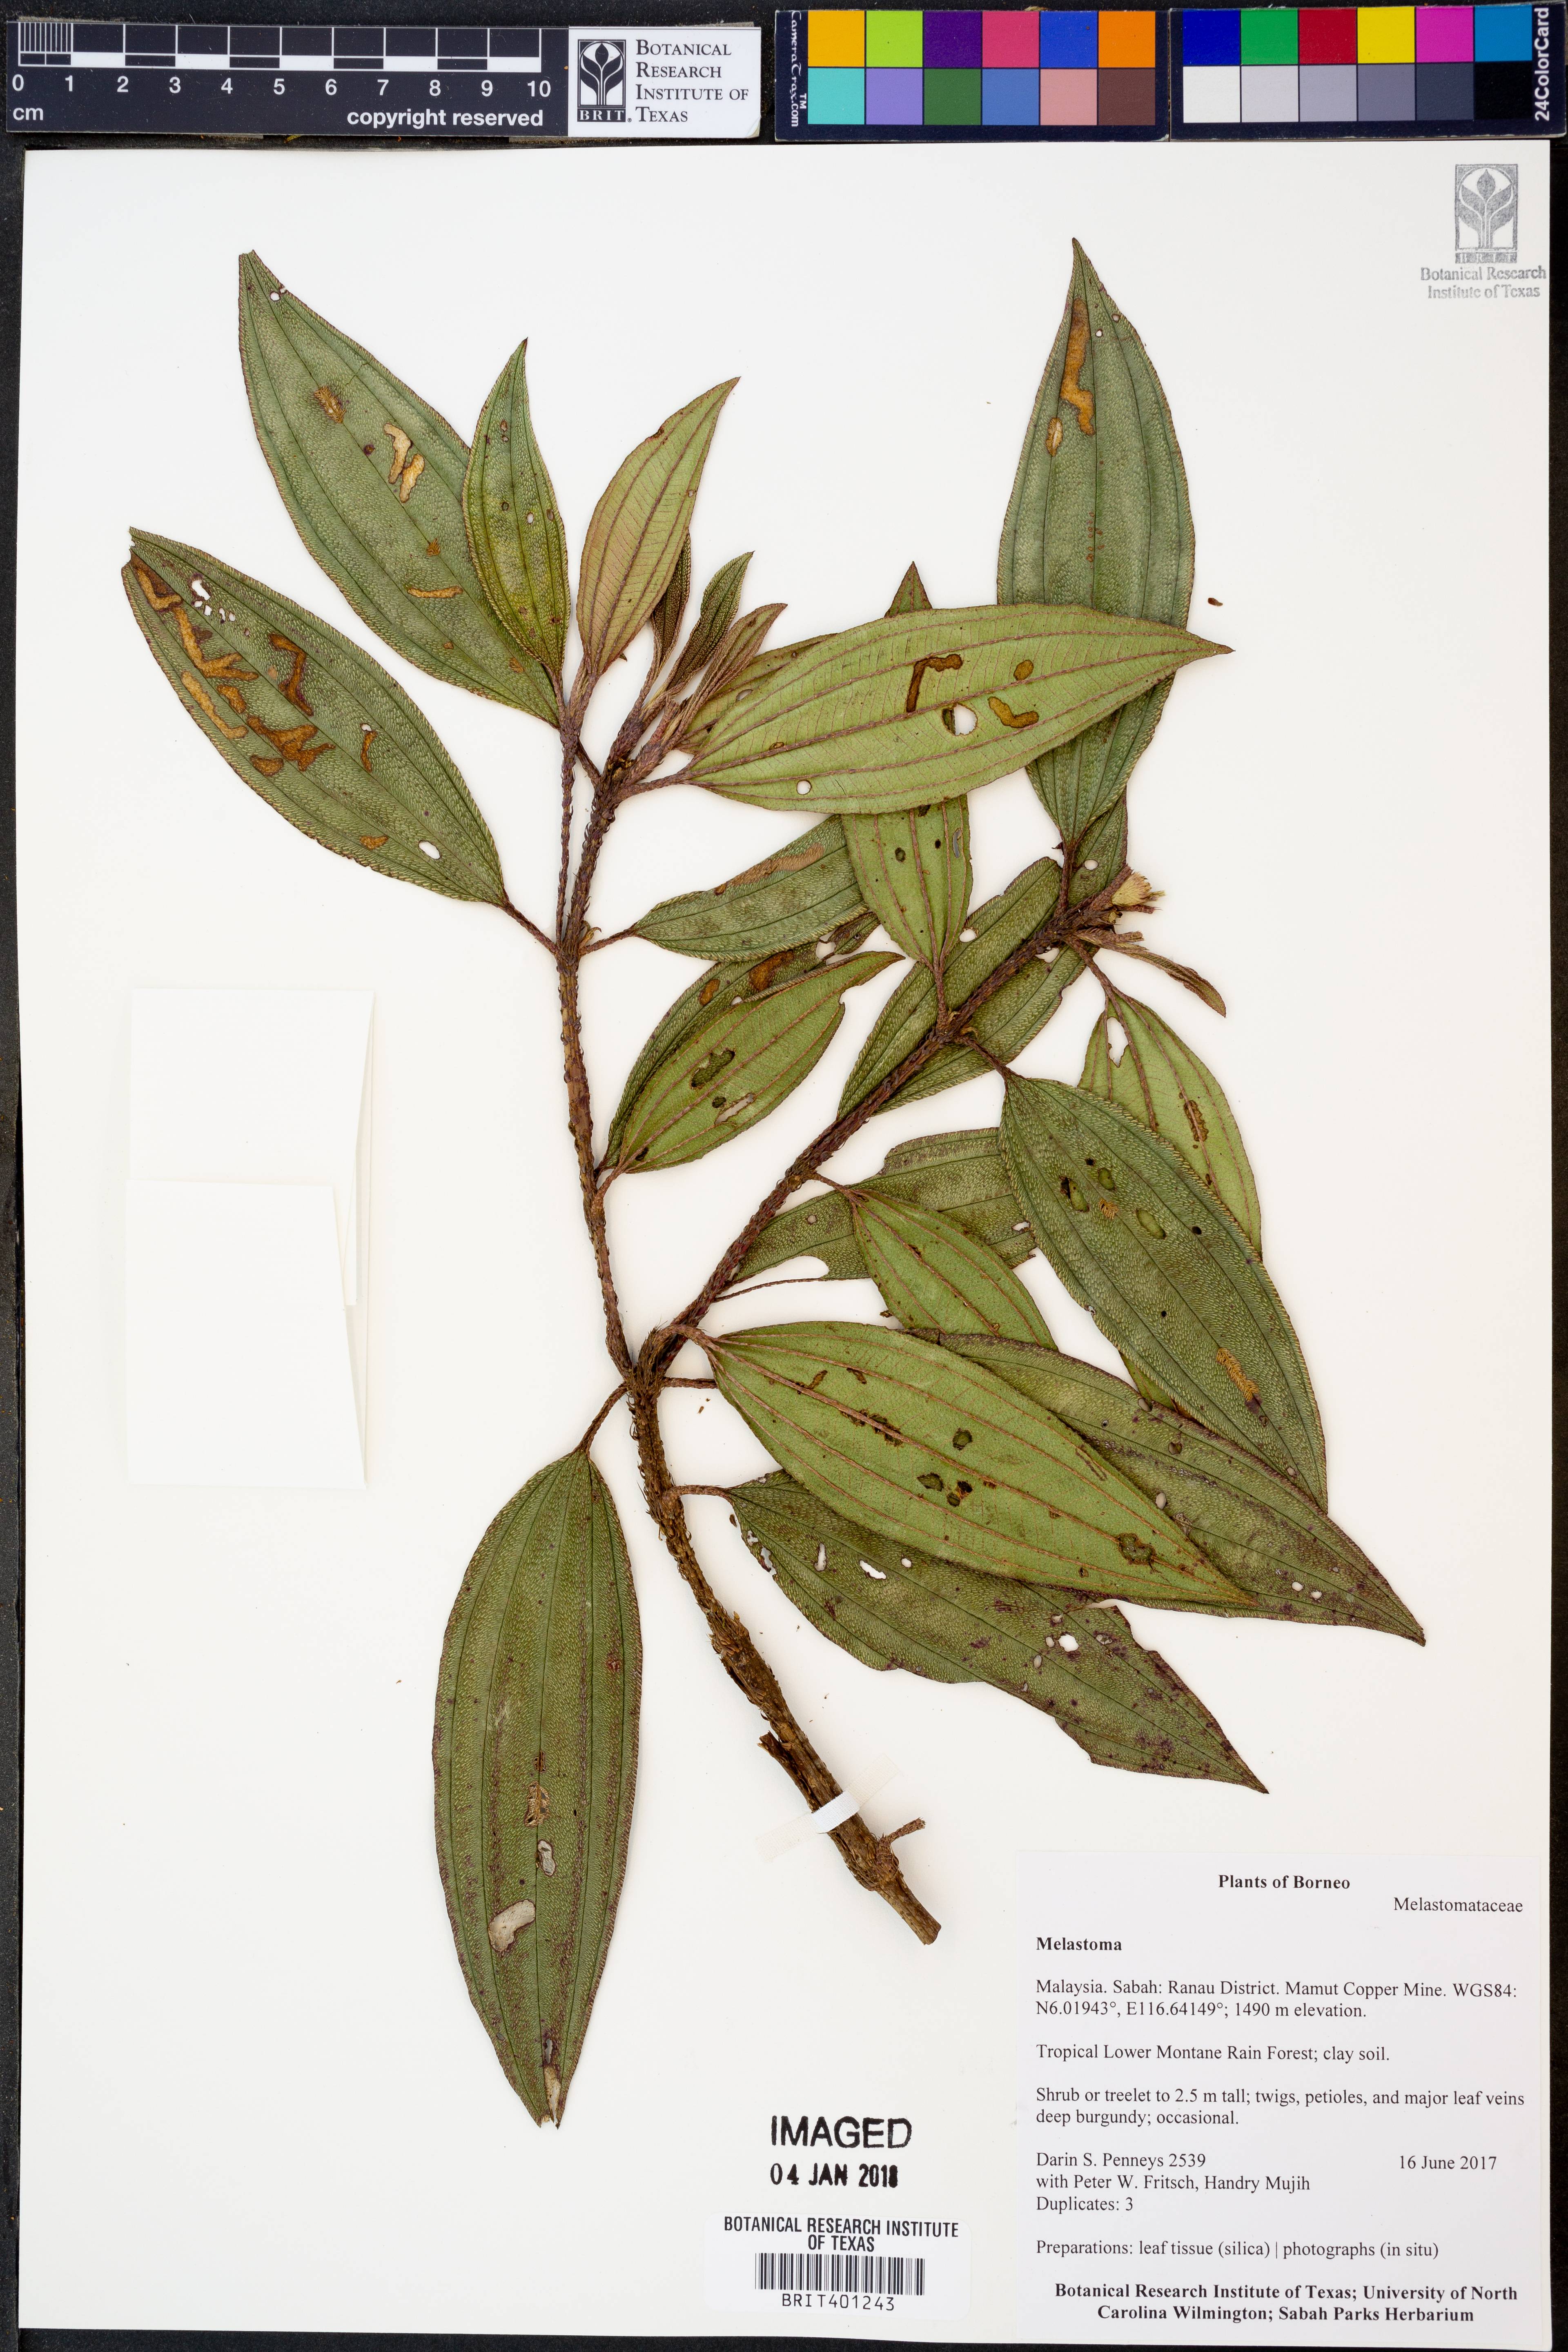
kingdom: Plantae
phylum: Tracheophyta
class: Magnoliopsida
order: Myrtales
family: Melastomataceae
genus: Melastoma
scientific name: Melastoma
